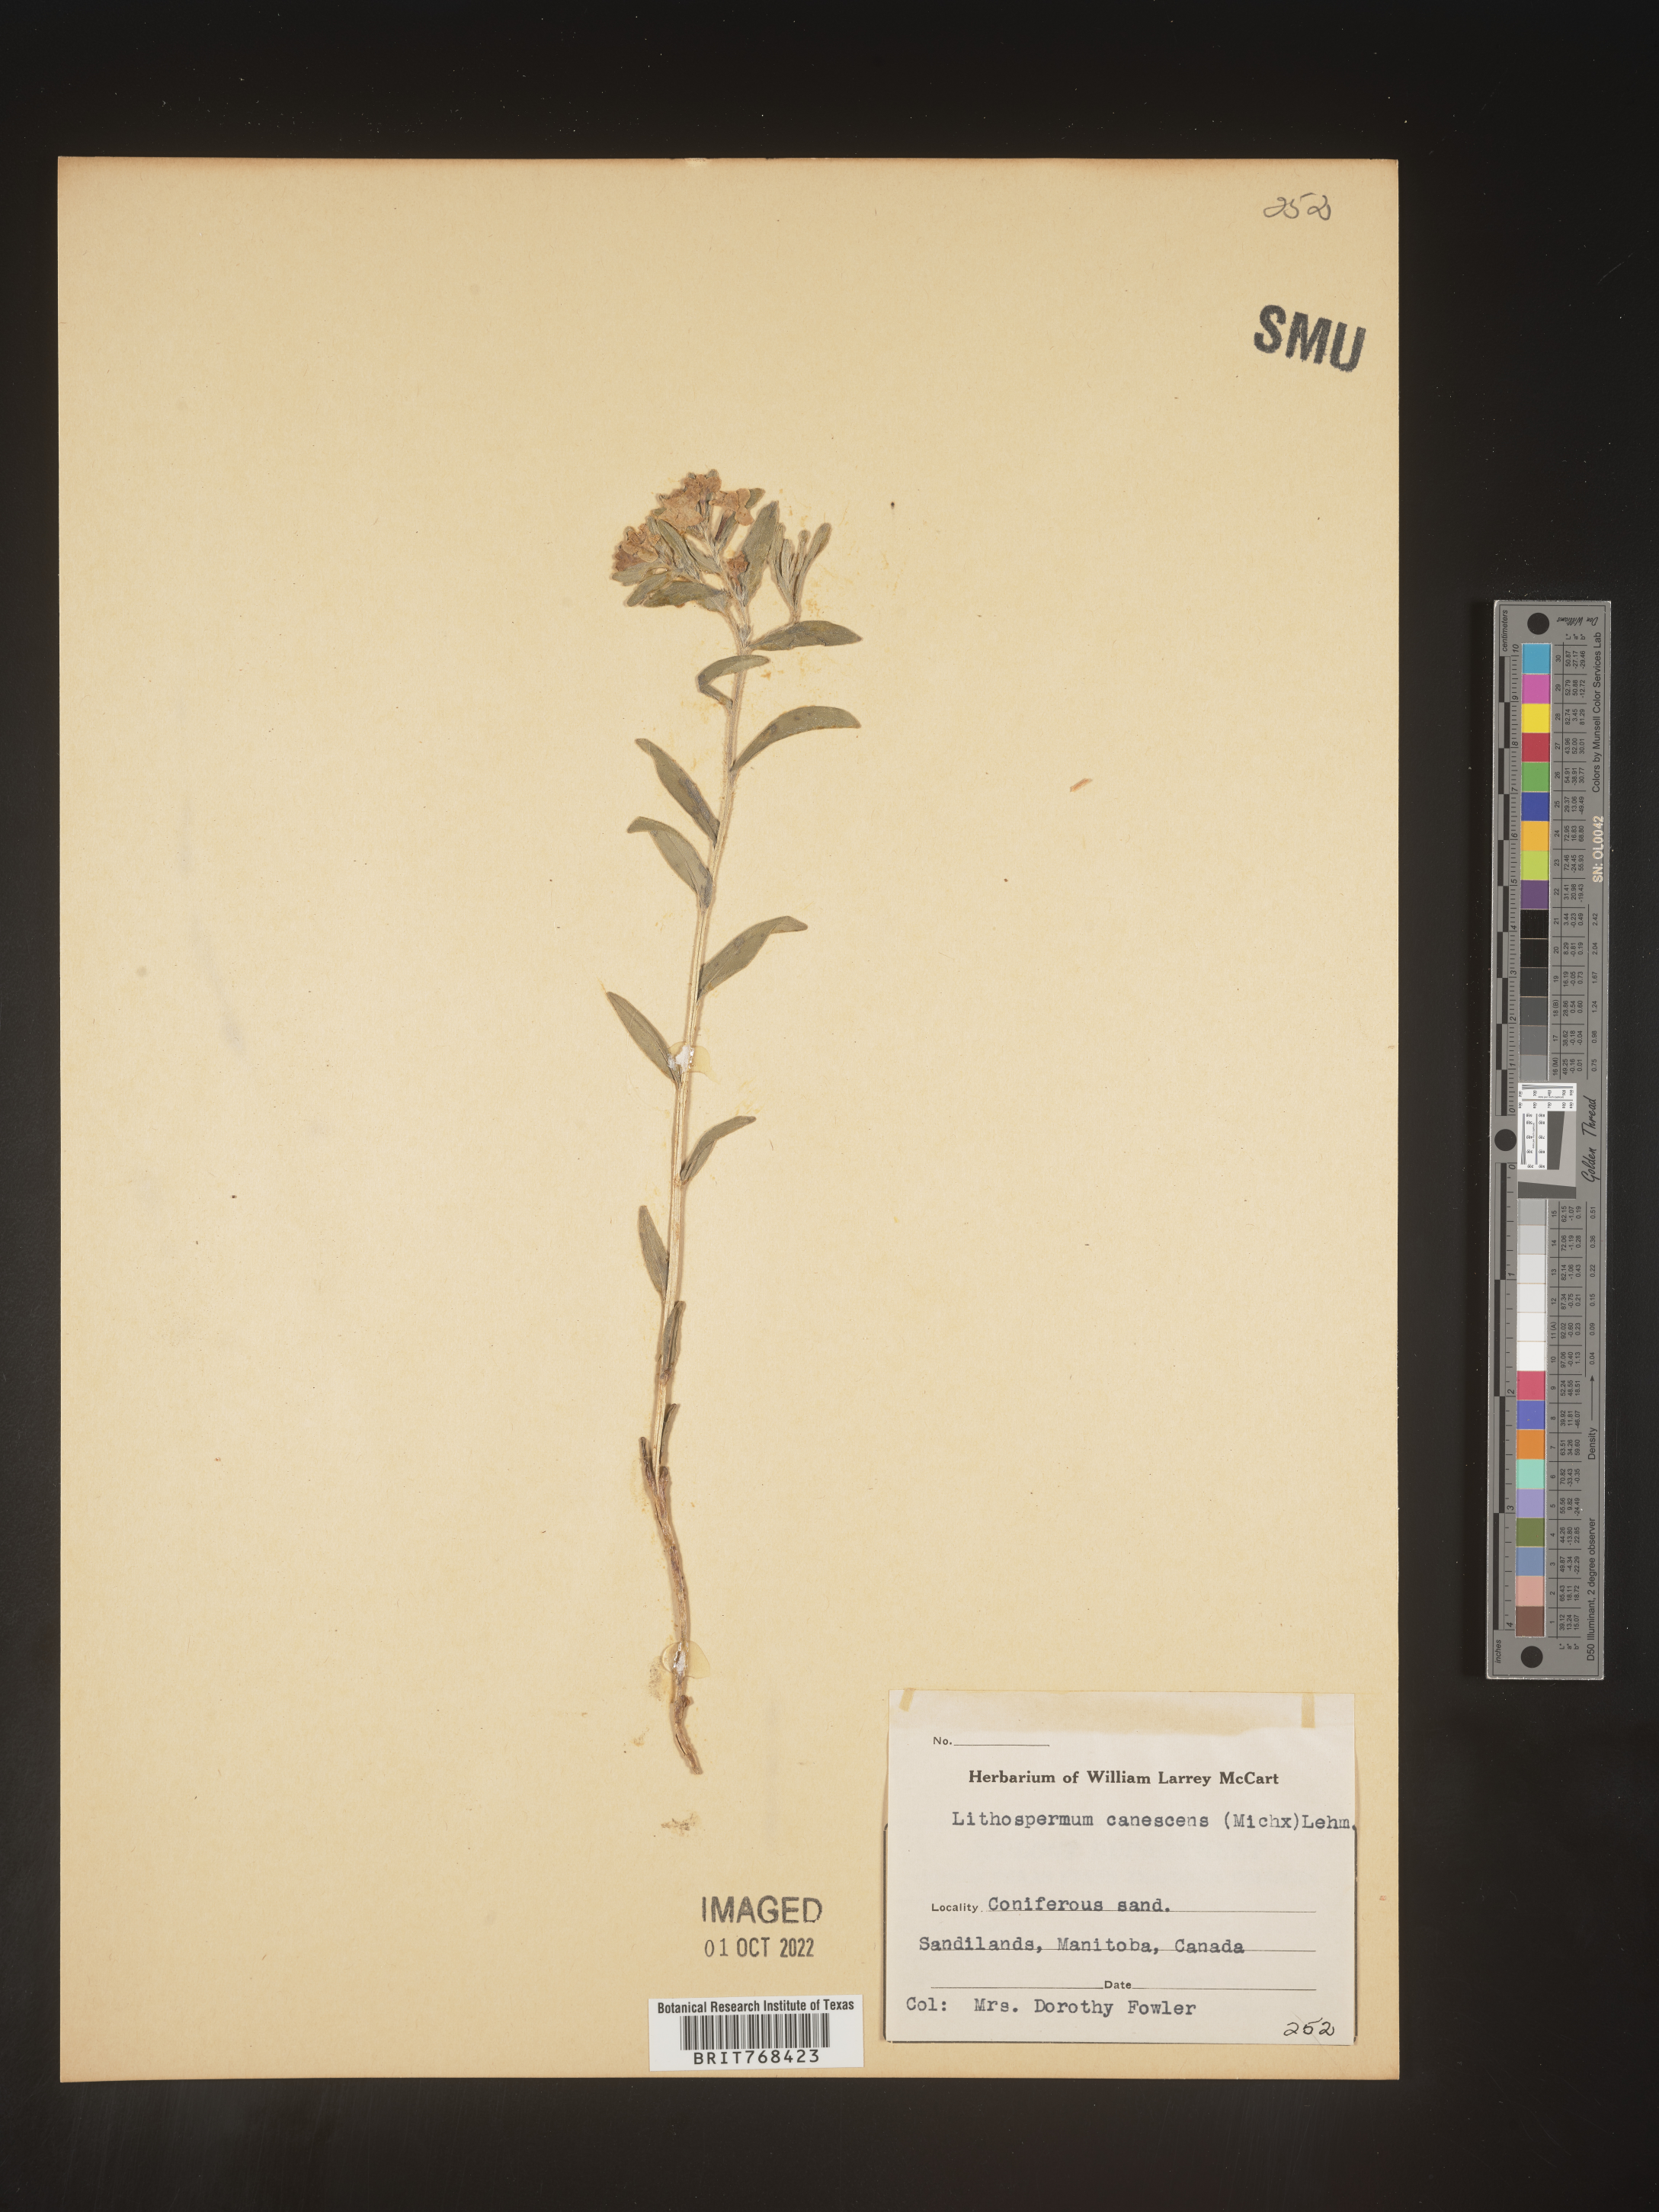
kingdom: Plantae
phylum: Tracheophyta
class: Magnoliopsida
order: Boraginales
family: Boraginaceae
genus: Lithospermum
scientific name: Lithospermum canescens
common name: Hoary puccoon
